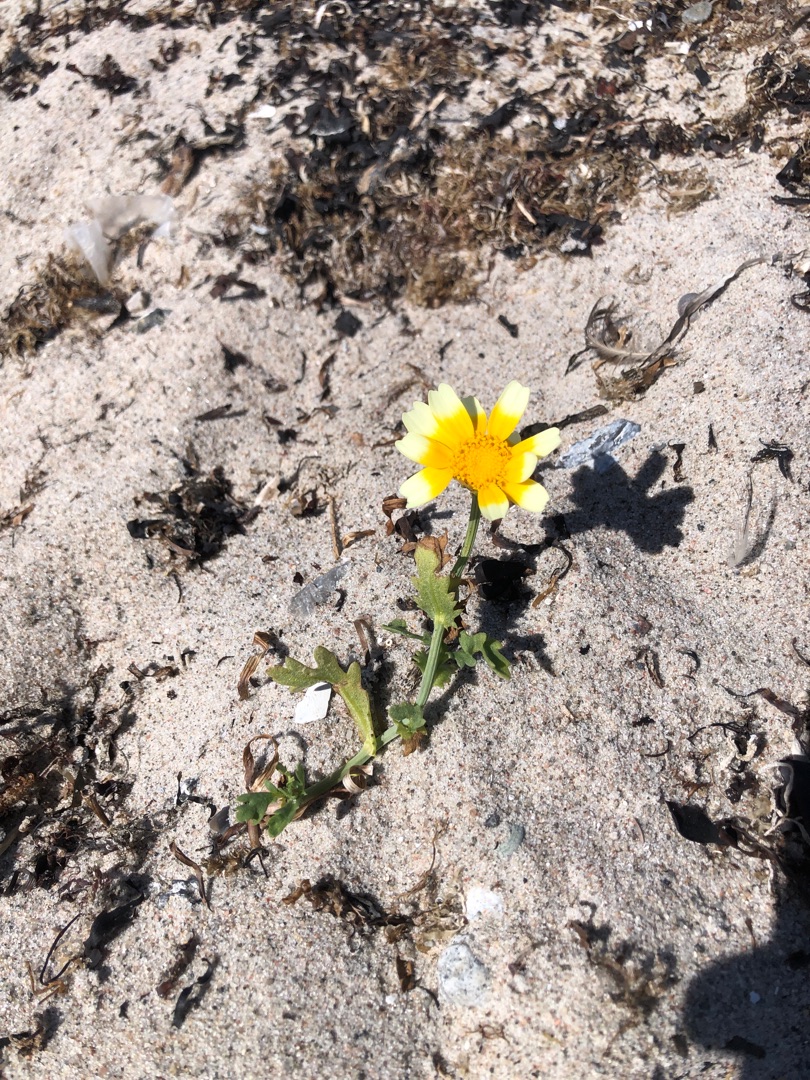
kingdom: Plantae
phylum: Tracheophyta
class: Magnoliopsida
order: Asterales
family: Asteraceae
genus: Glebionis
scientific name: Glebionis carinata
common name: Flerfarvet okseøje
